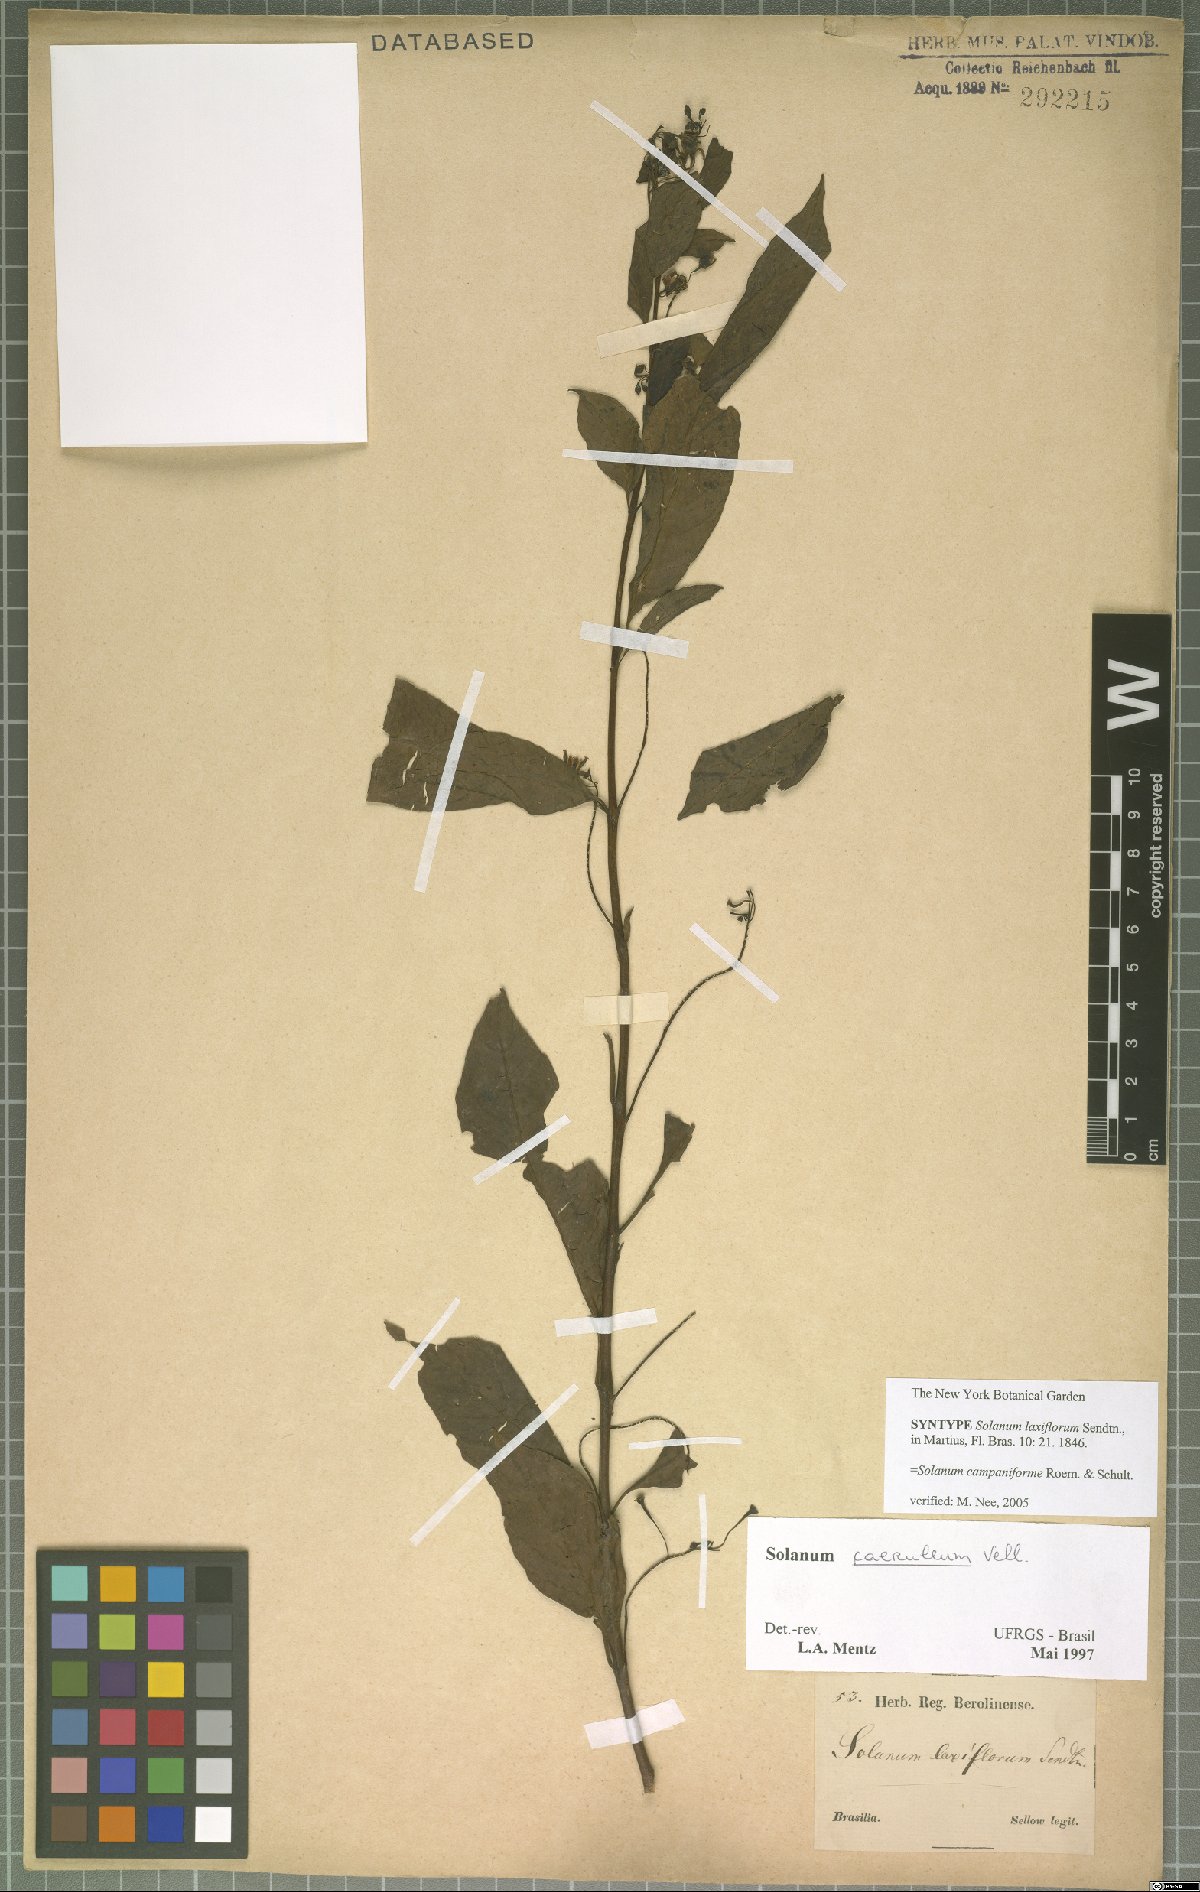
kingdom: Plantae
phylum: Tracheophyta
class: Magnoliopsida
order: Solanales
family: Solanaceae
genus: Solanum
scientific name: Solanum campaniforme
